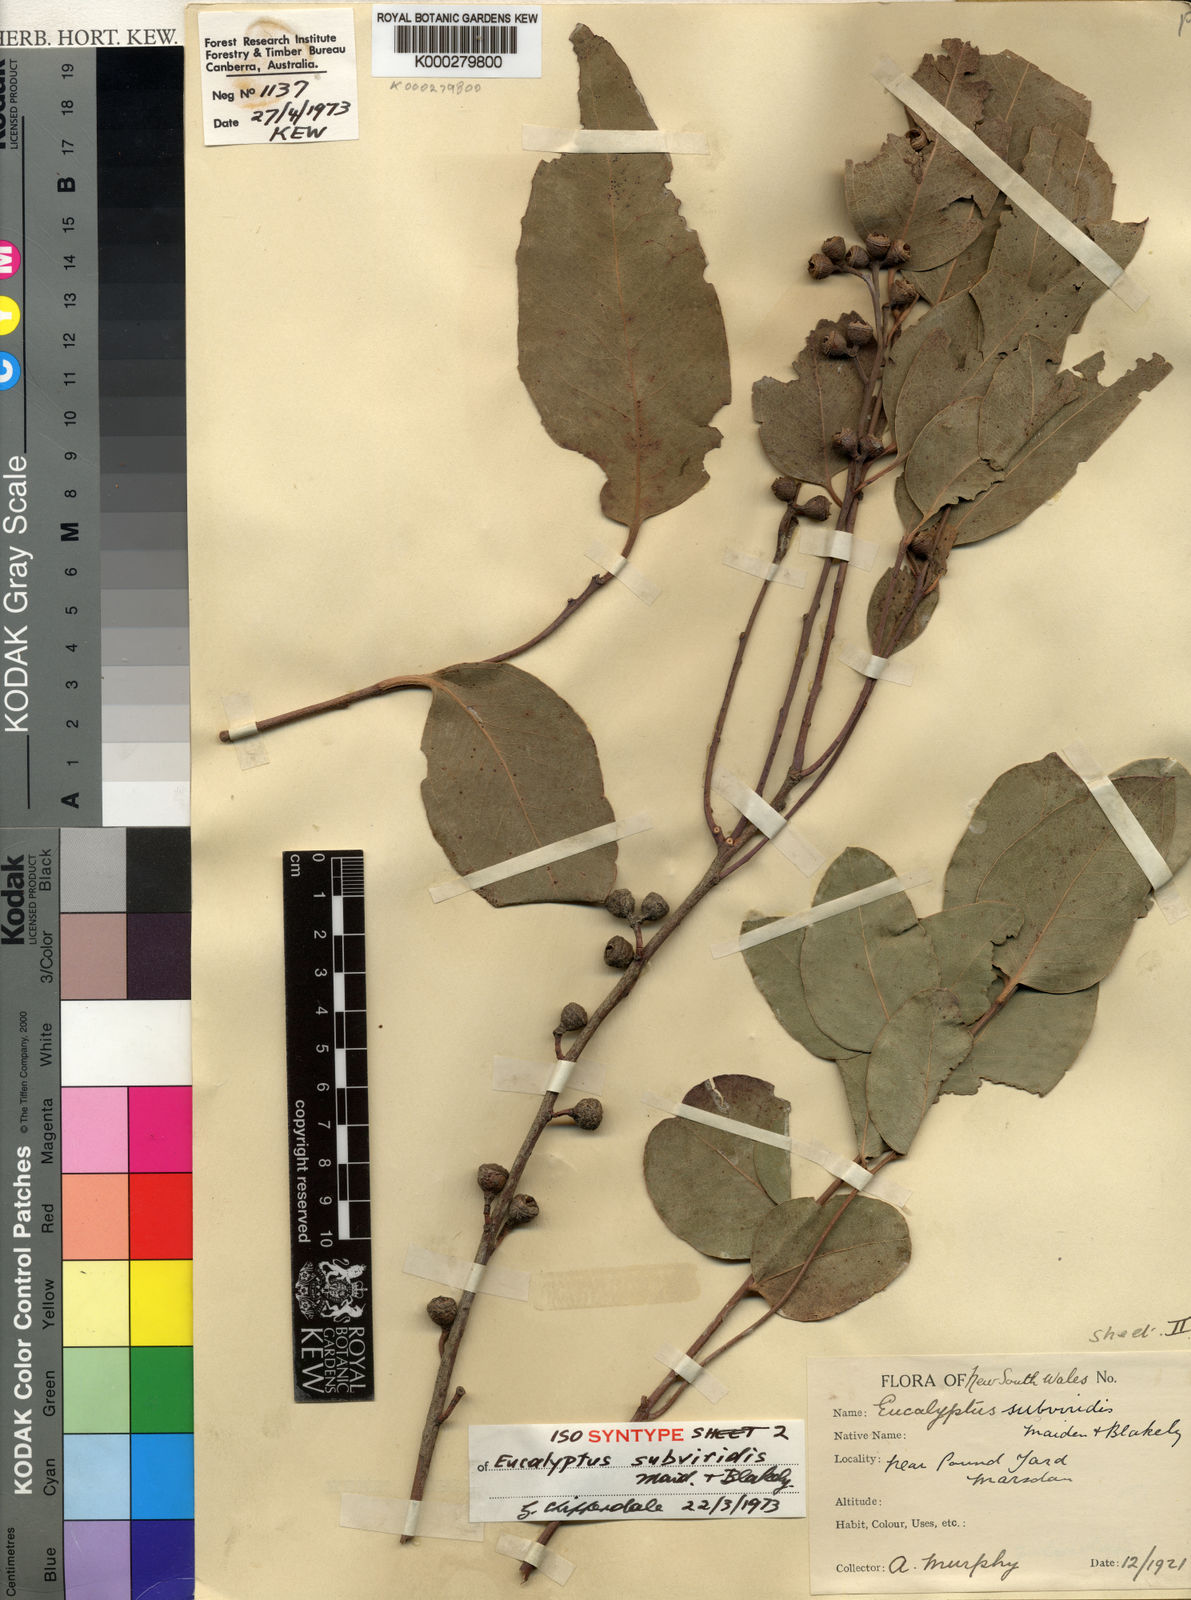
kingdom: Plantae
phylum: Tracheophyta
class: Magnoliopsida
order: Myrtales
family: Myrtaceae
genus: Eucalyptus
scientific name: Eucalyptus subviridis
